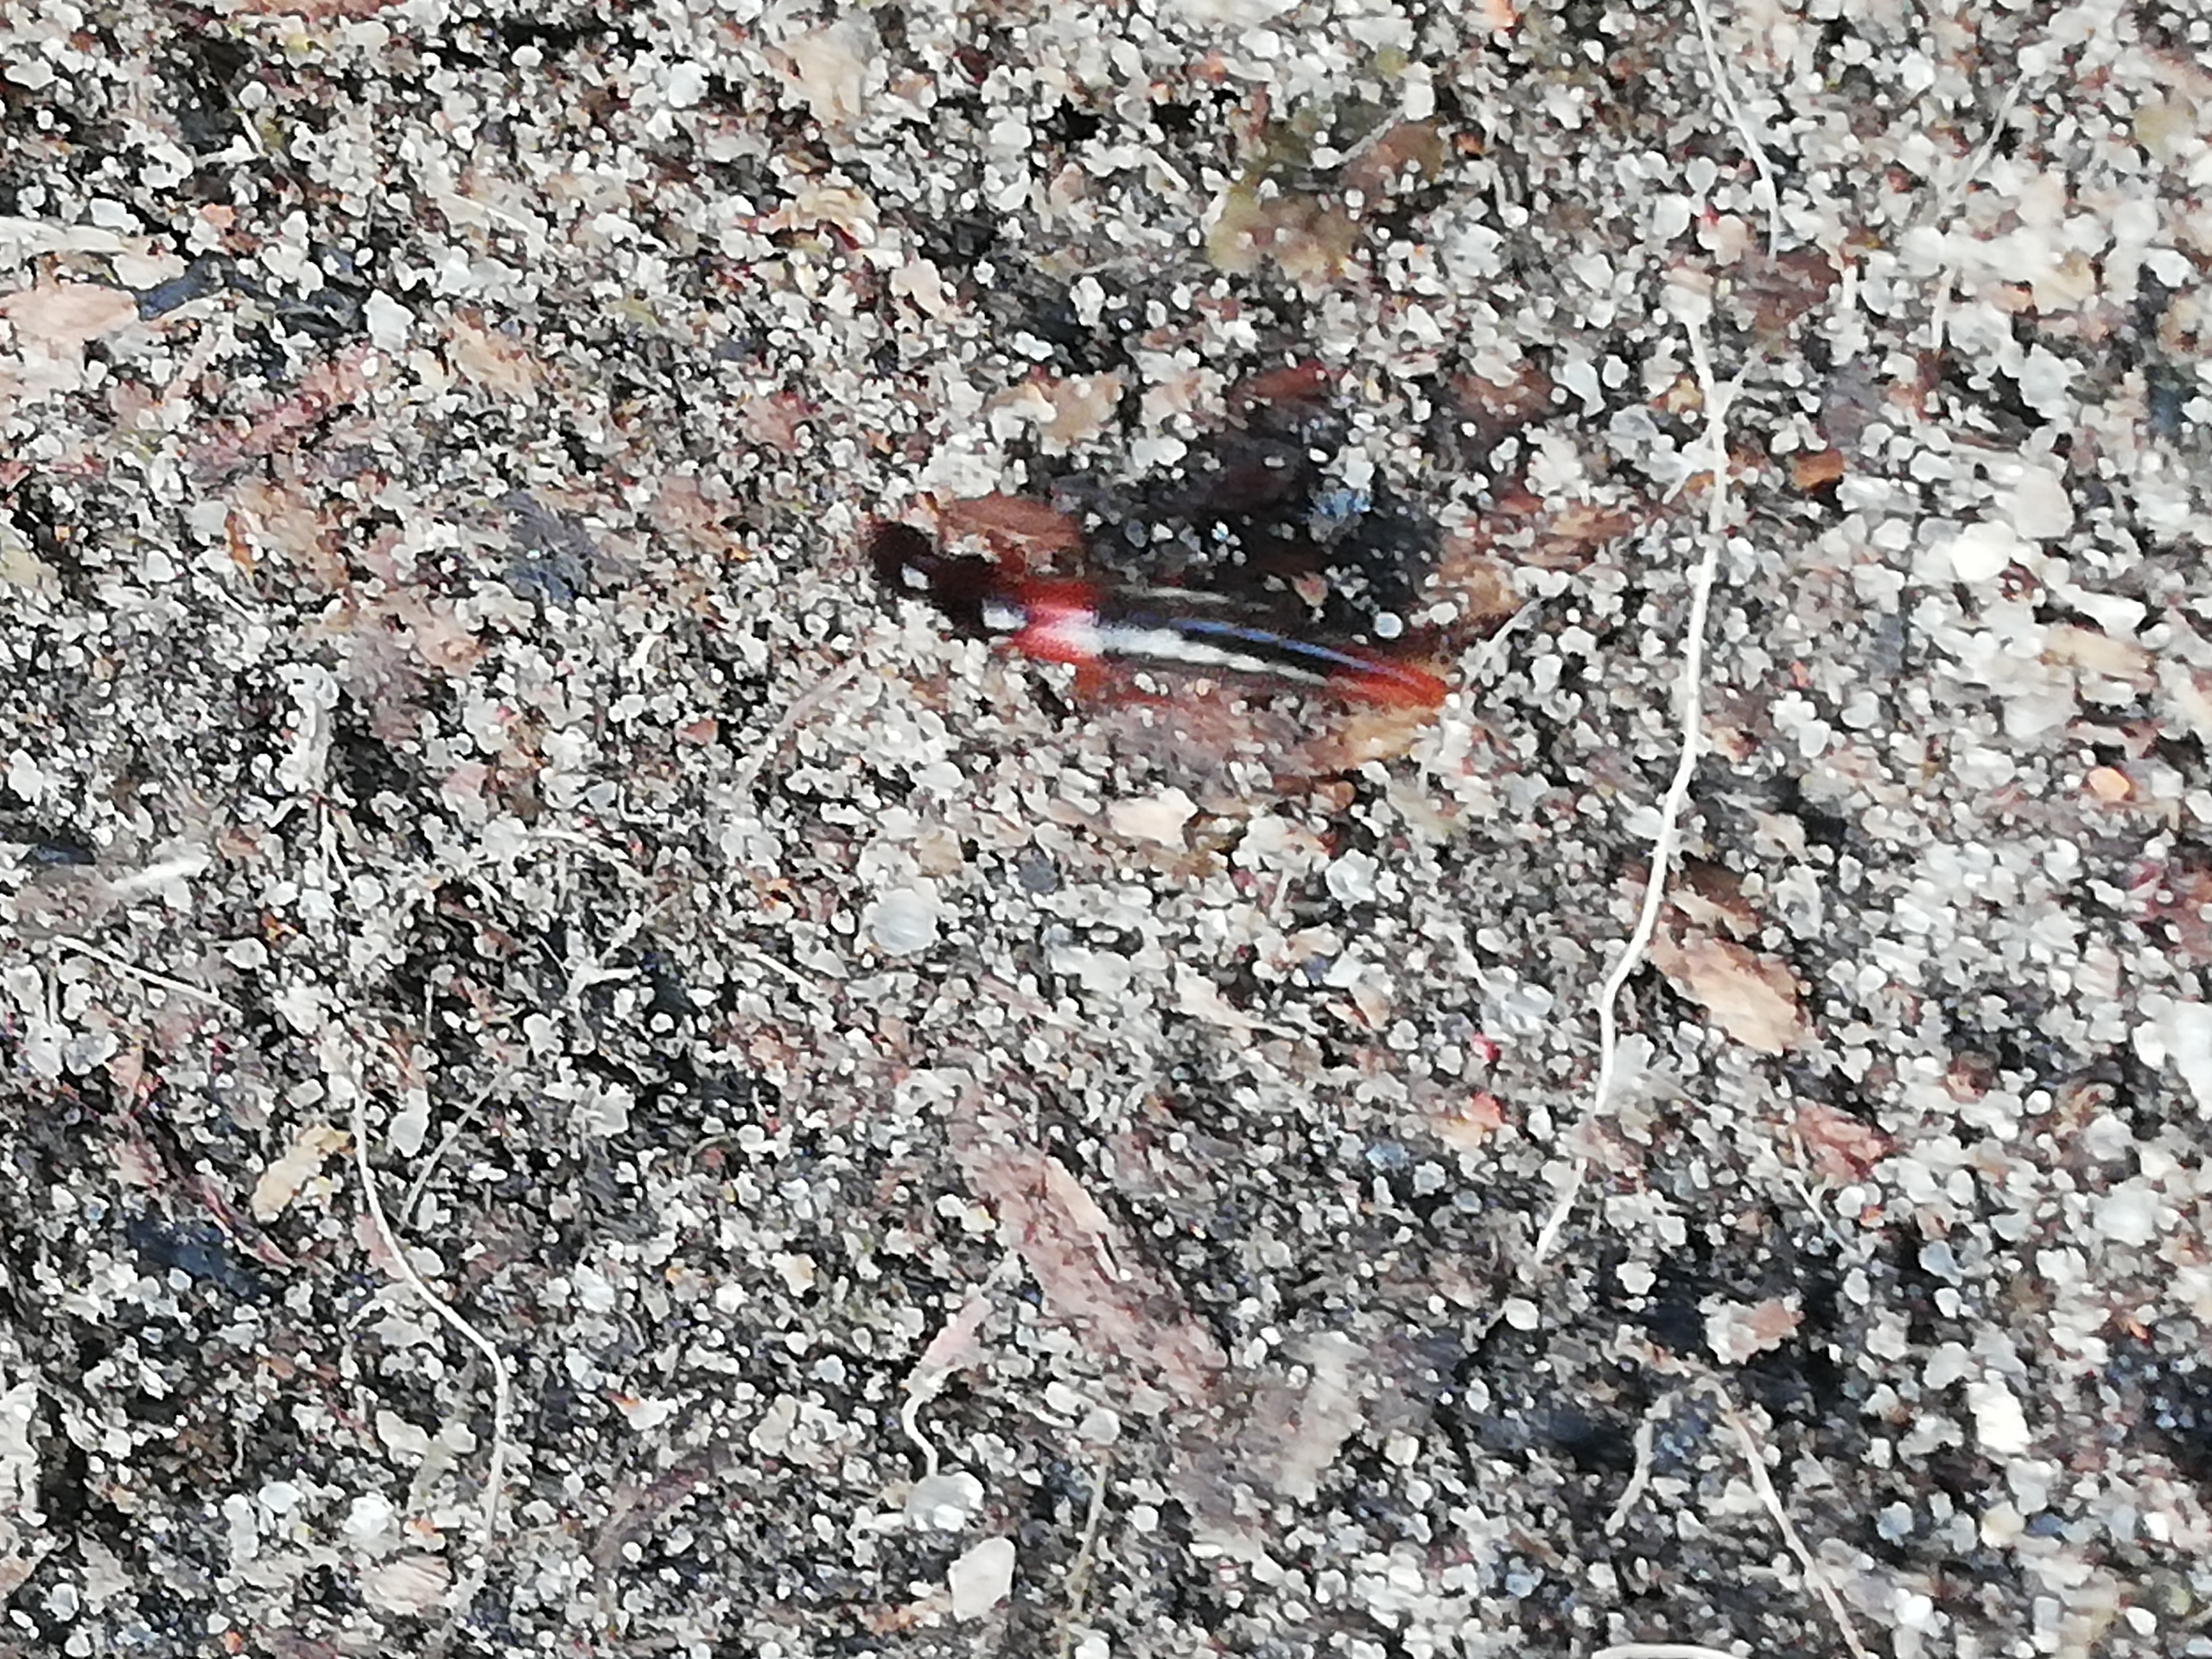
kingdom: Animalia
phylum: Arthropoda
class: Insecta
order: Coleoptera
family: Staphylinidae
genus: Othius
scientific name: Othius punctulatus
